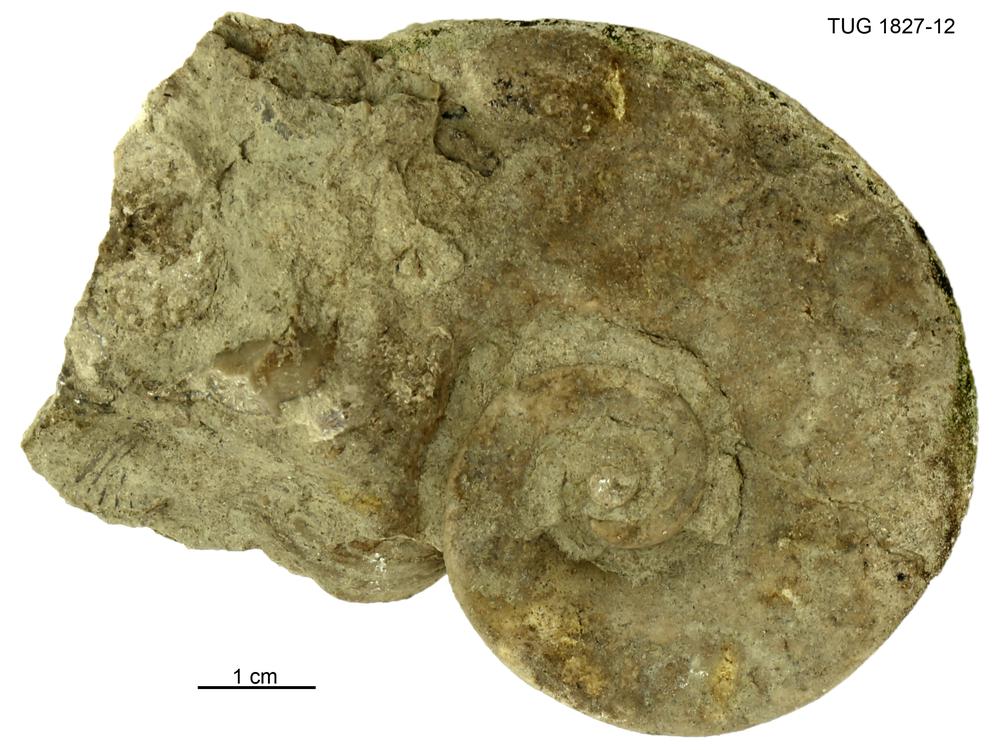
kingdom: Animalia
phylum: Mollusca
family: Macluritidae
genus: Maclurites
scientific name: Maclurites Maclurea neritoides
